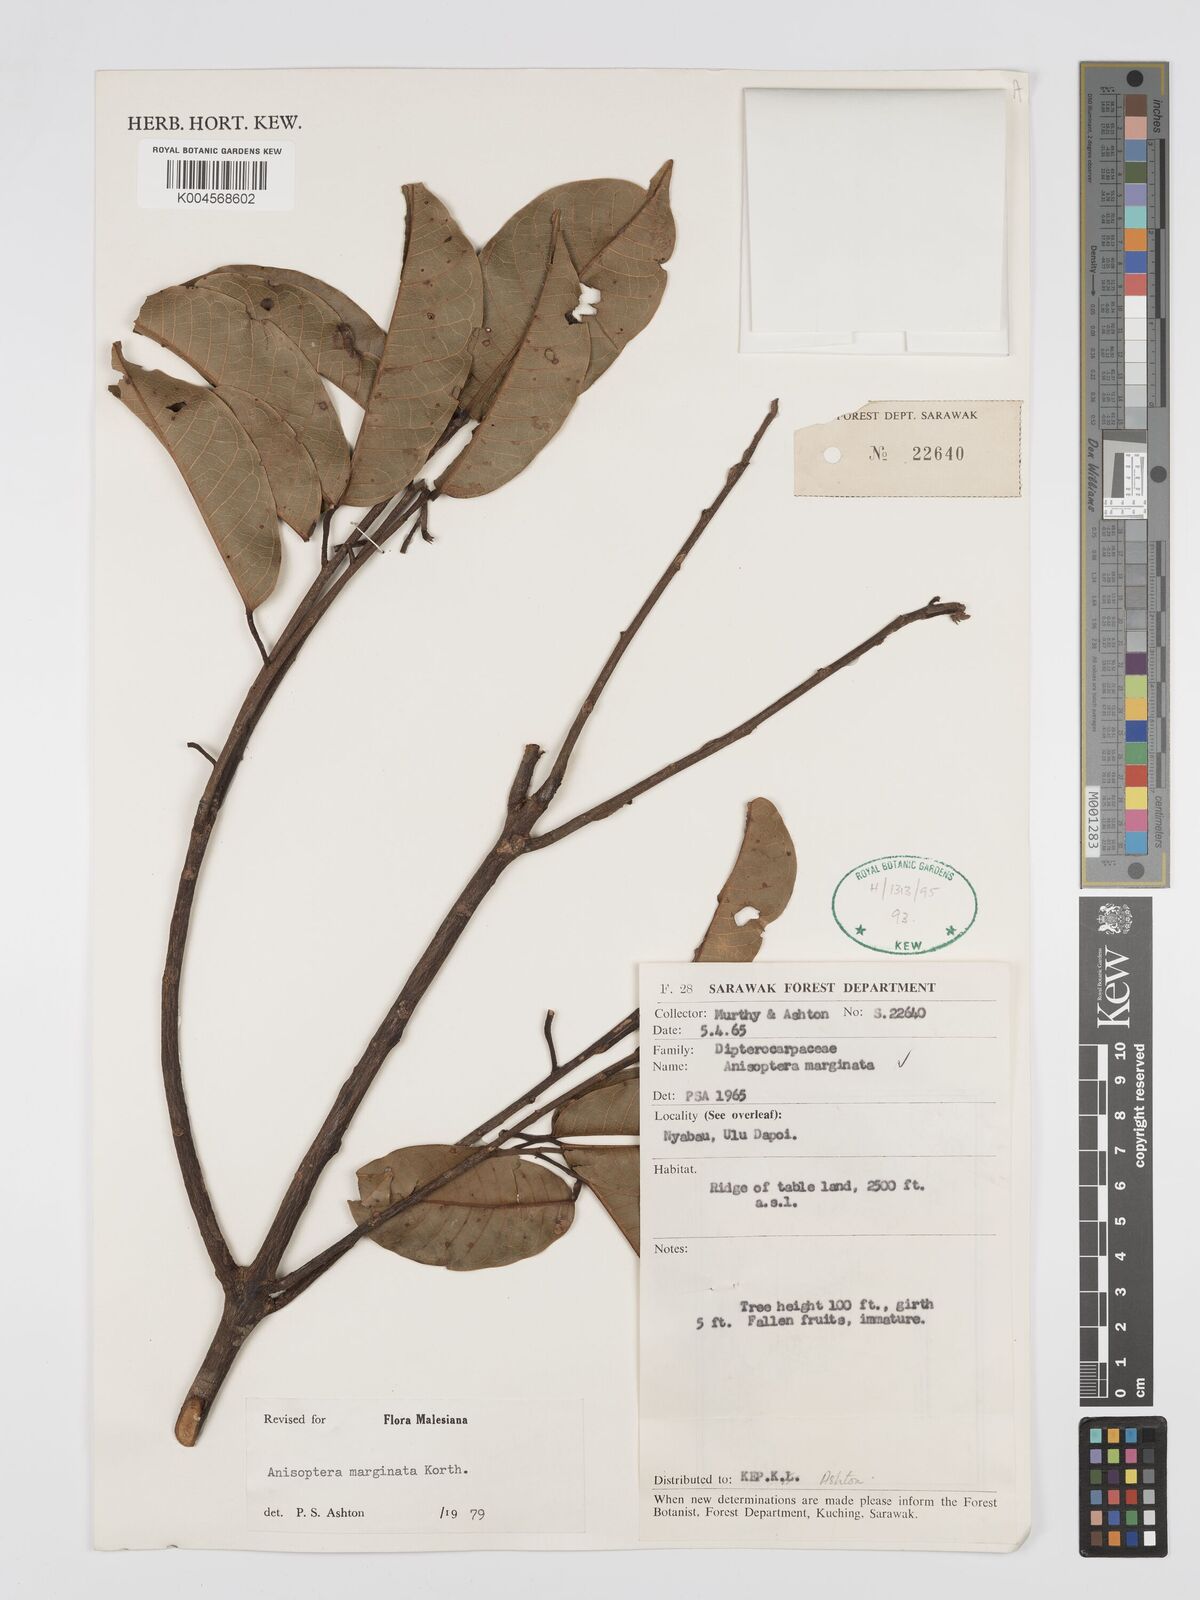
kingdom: Plantae
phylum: Tracheophyta
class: Magnoliopsida
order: Malvales
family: Dipterocarpaceae
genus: Anisoptera
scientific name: Anisoptera marginata
